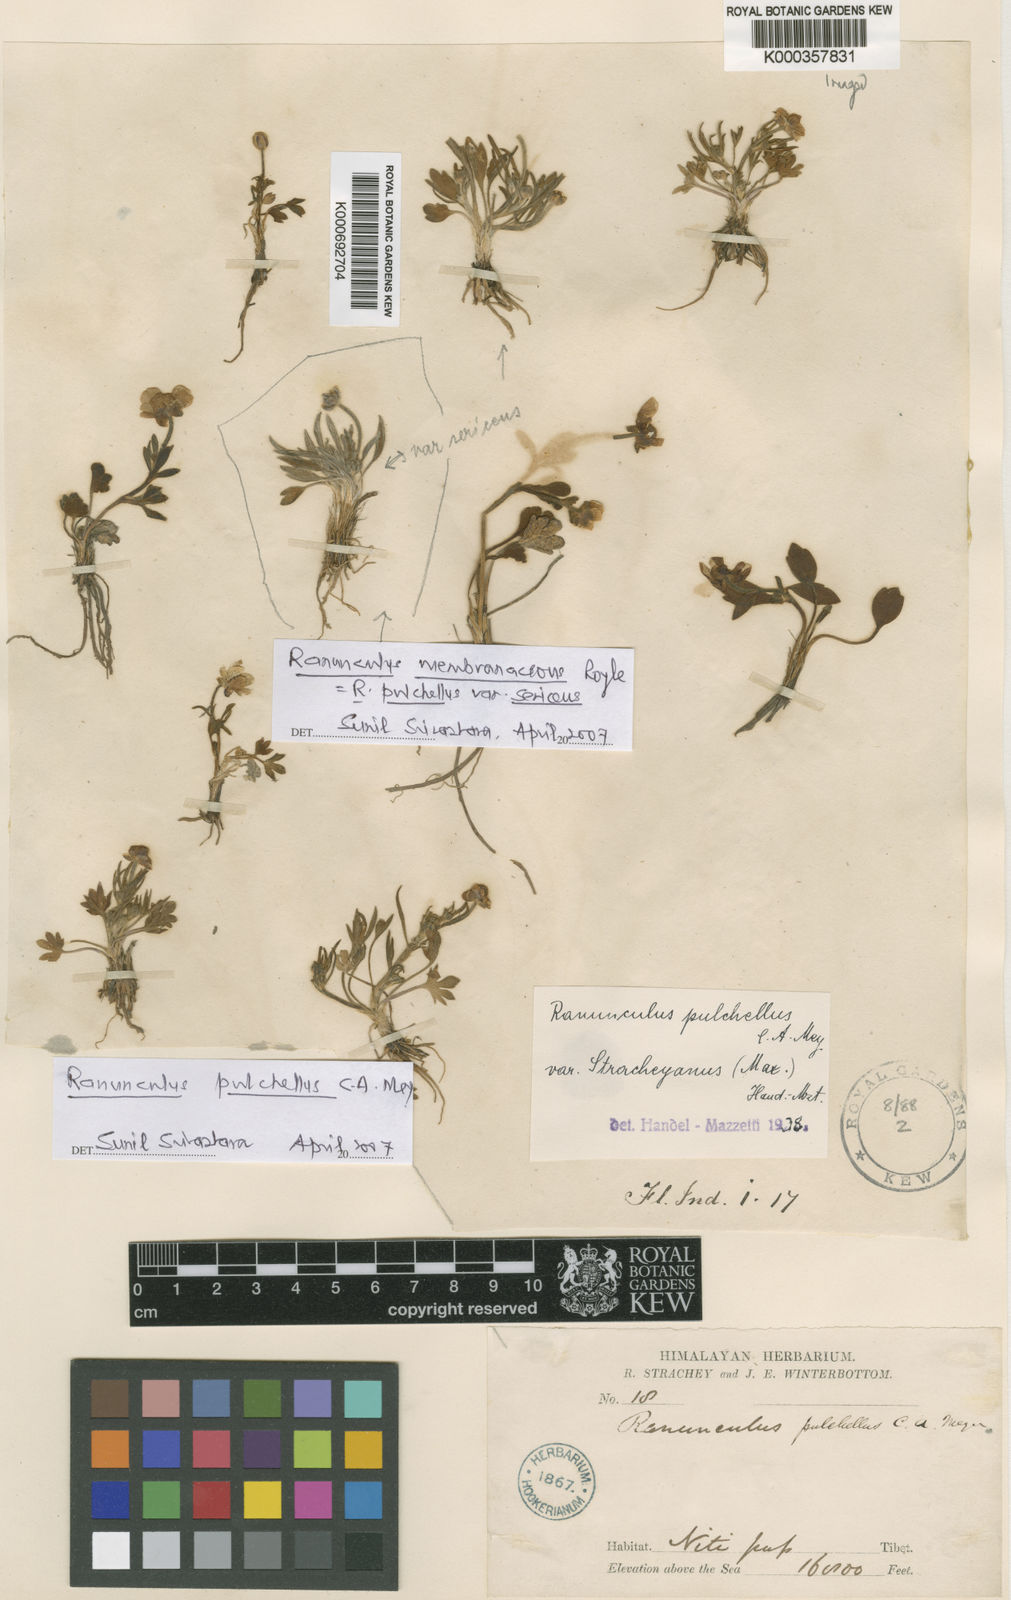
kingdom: Plantae
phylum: Tracheophyta
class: Magnoliopsida
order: Ranunculales
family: Ranunculaceae
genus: Ranunculus
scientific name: Ranunculus pulchellus
